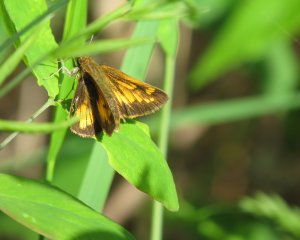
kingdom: Animalia
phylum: Arthropoda
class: Insecta
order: Lepidoptera
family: Hesperiidae
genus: Lon
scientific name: Lon hobomok
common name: Hobomok Skipper
